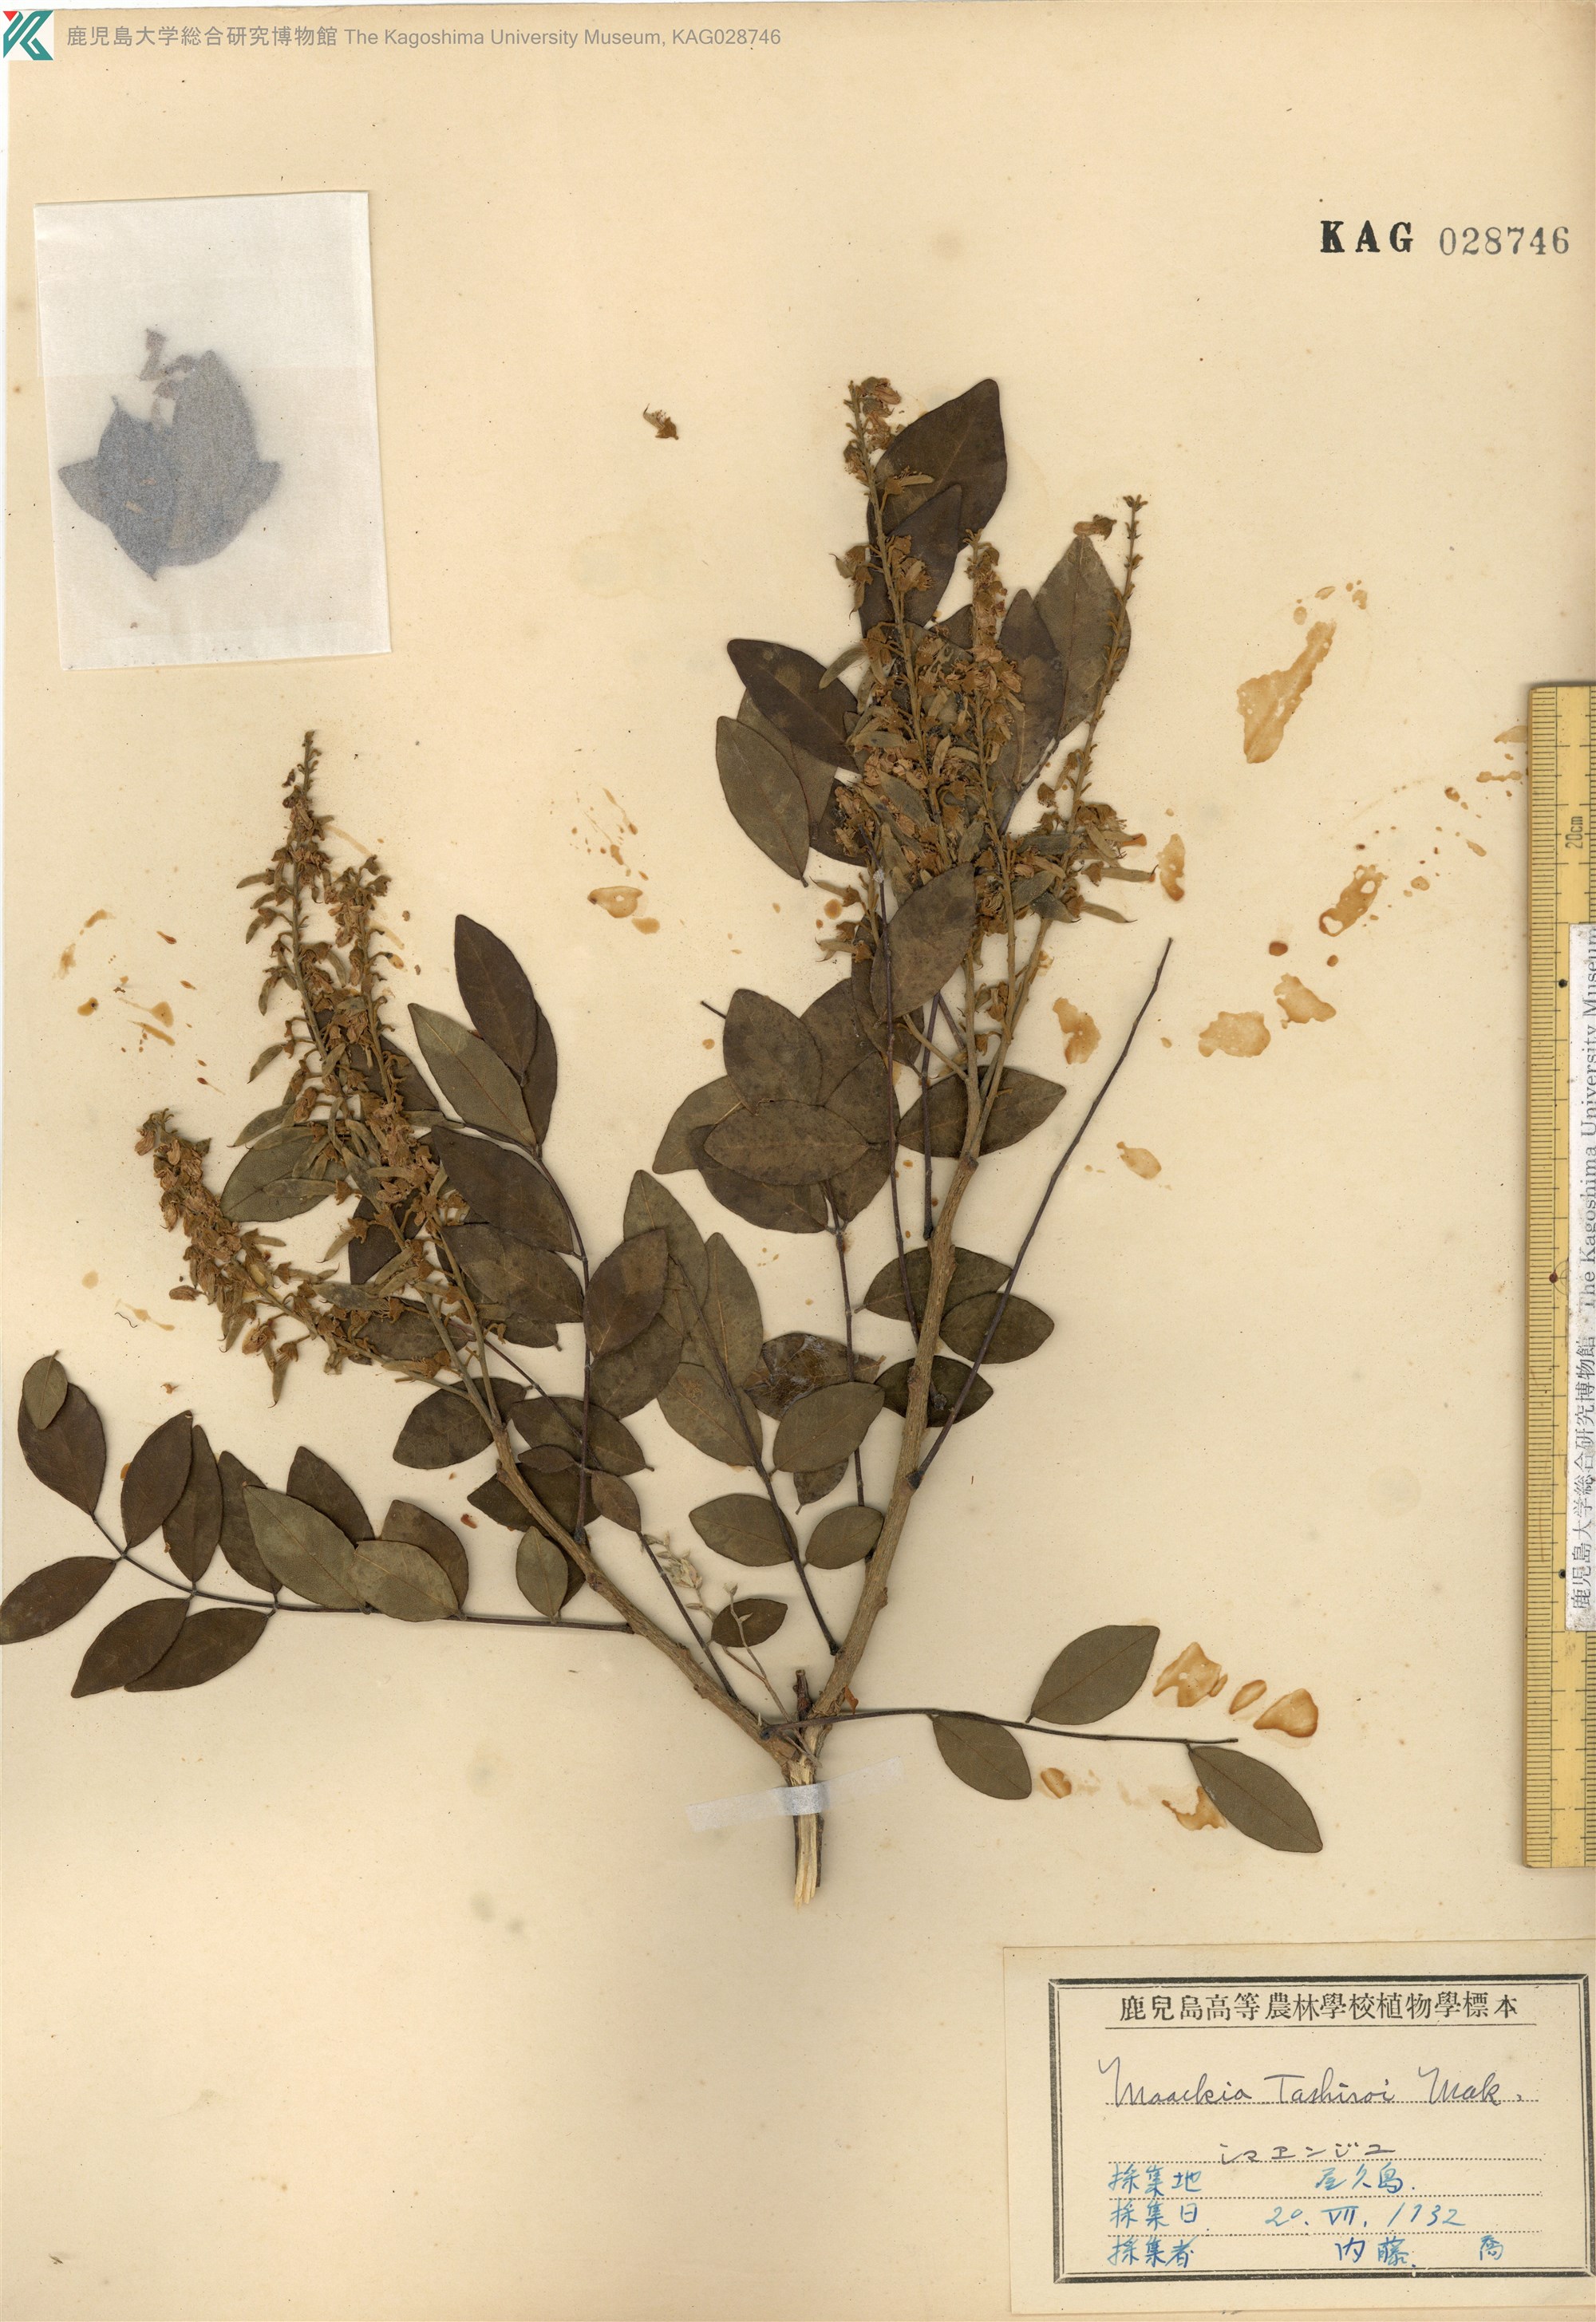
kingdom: Plantae
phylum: Tracheophyta
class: Magnoliopsida
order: Fabales
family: Fabaceae
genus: Maackia
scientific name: Maackia tashiroi
